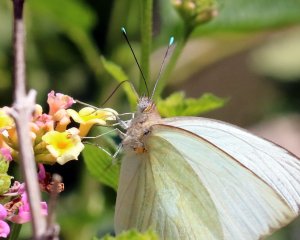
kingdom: Animalia
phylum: Arthropoda
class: Insecta
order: Lepidoptera
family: Pieridae
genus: Ascia
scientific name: Ascia monuste
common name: Great Southern White
